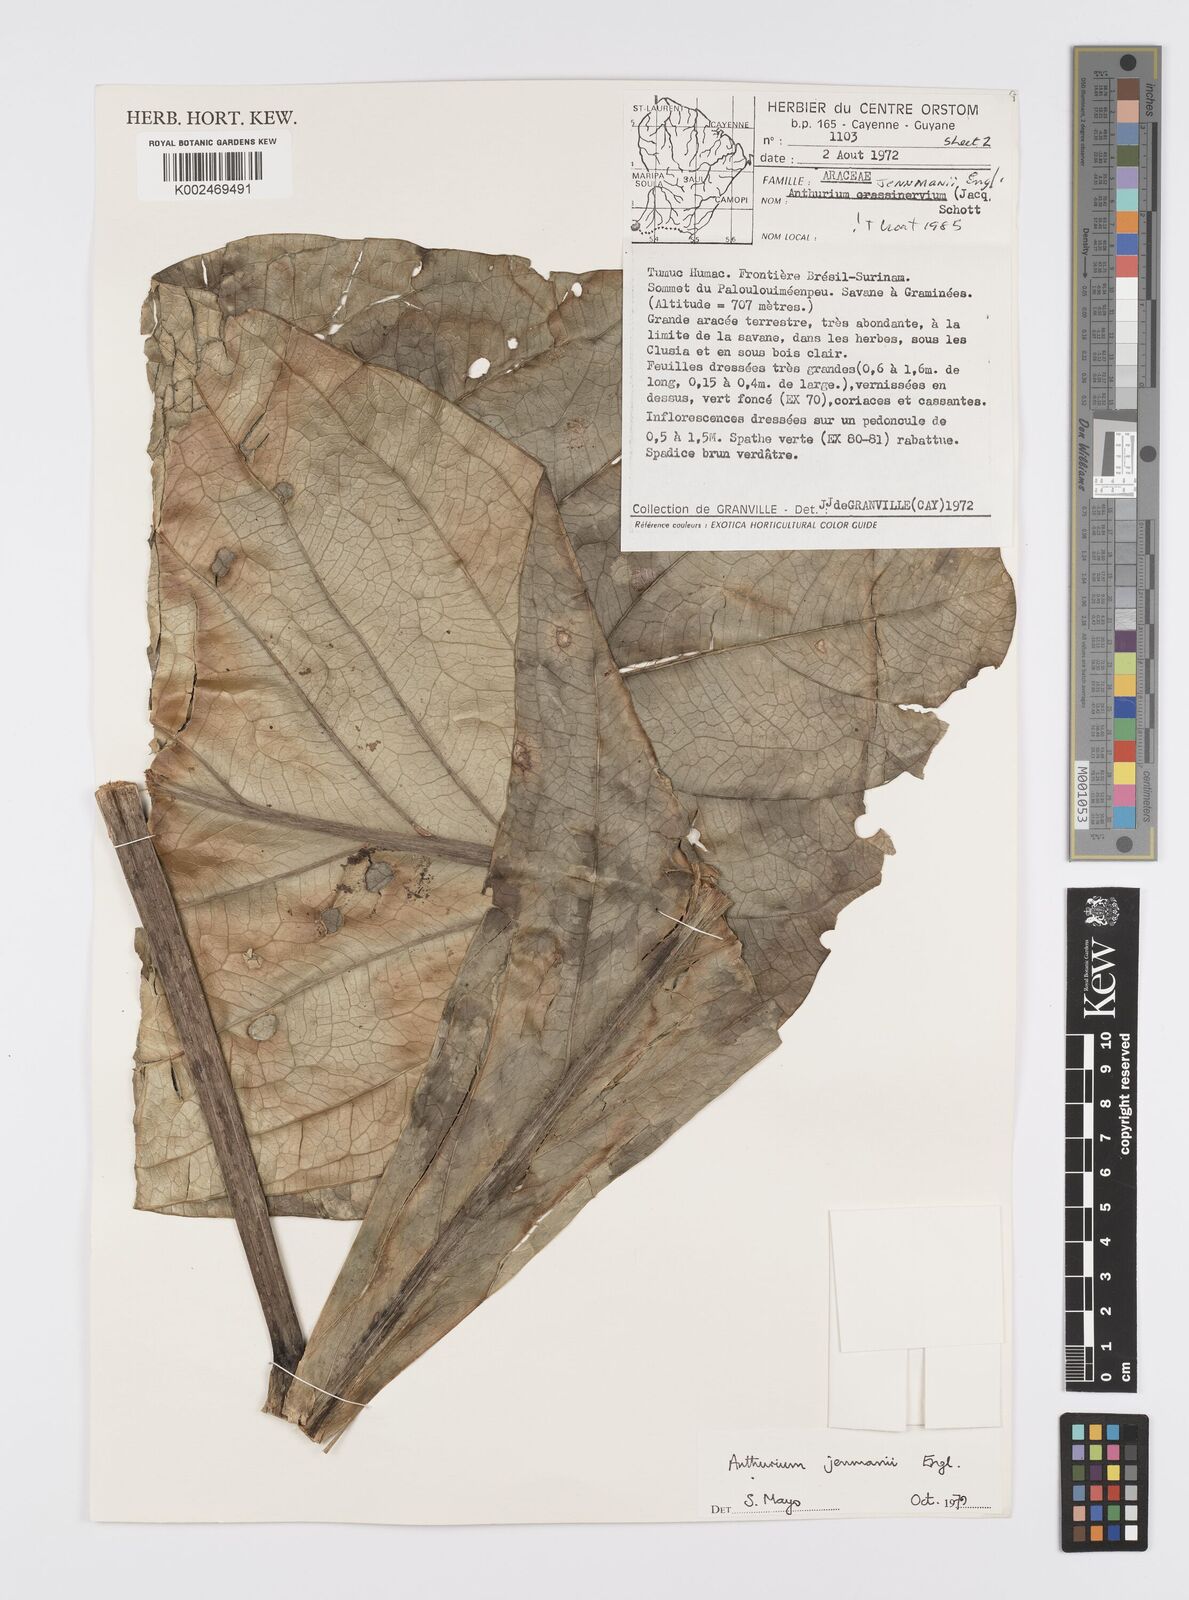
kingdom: Plantae
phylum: Tracheophyta
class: Liliopsida
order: Alismatales
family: Araceae
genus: Anthurium
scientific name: Anthurium jenmanii
